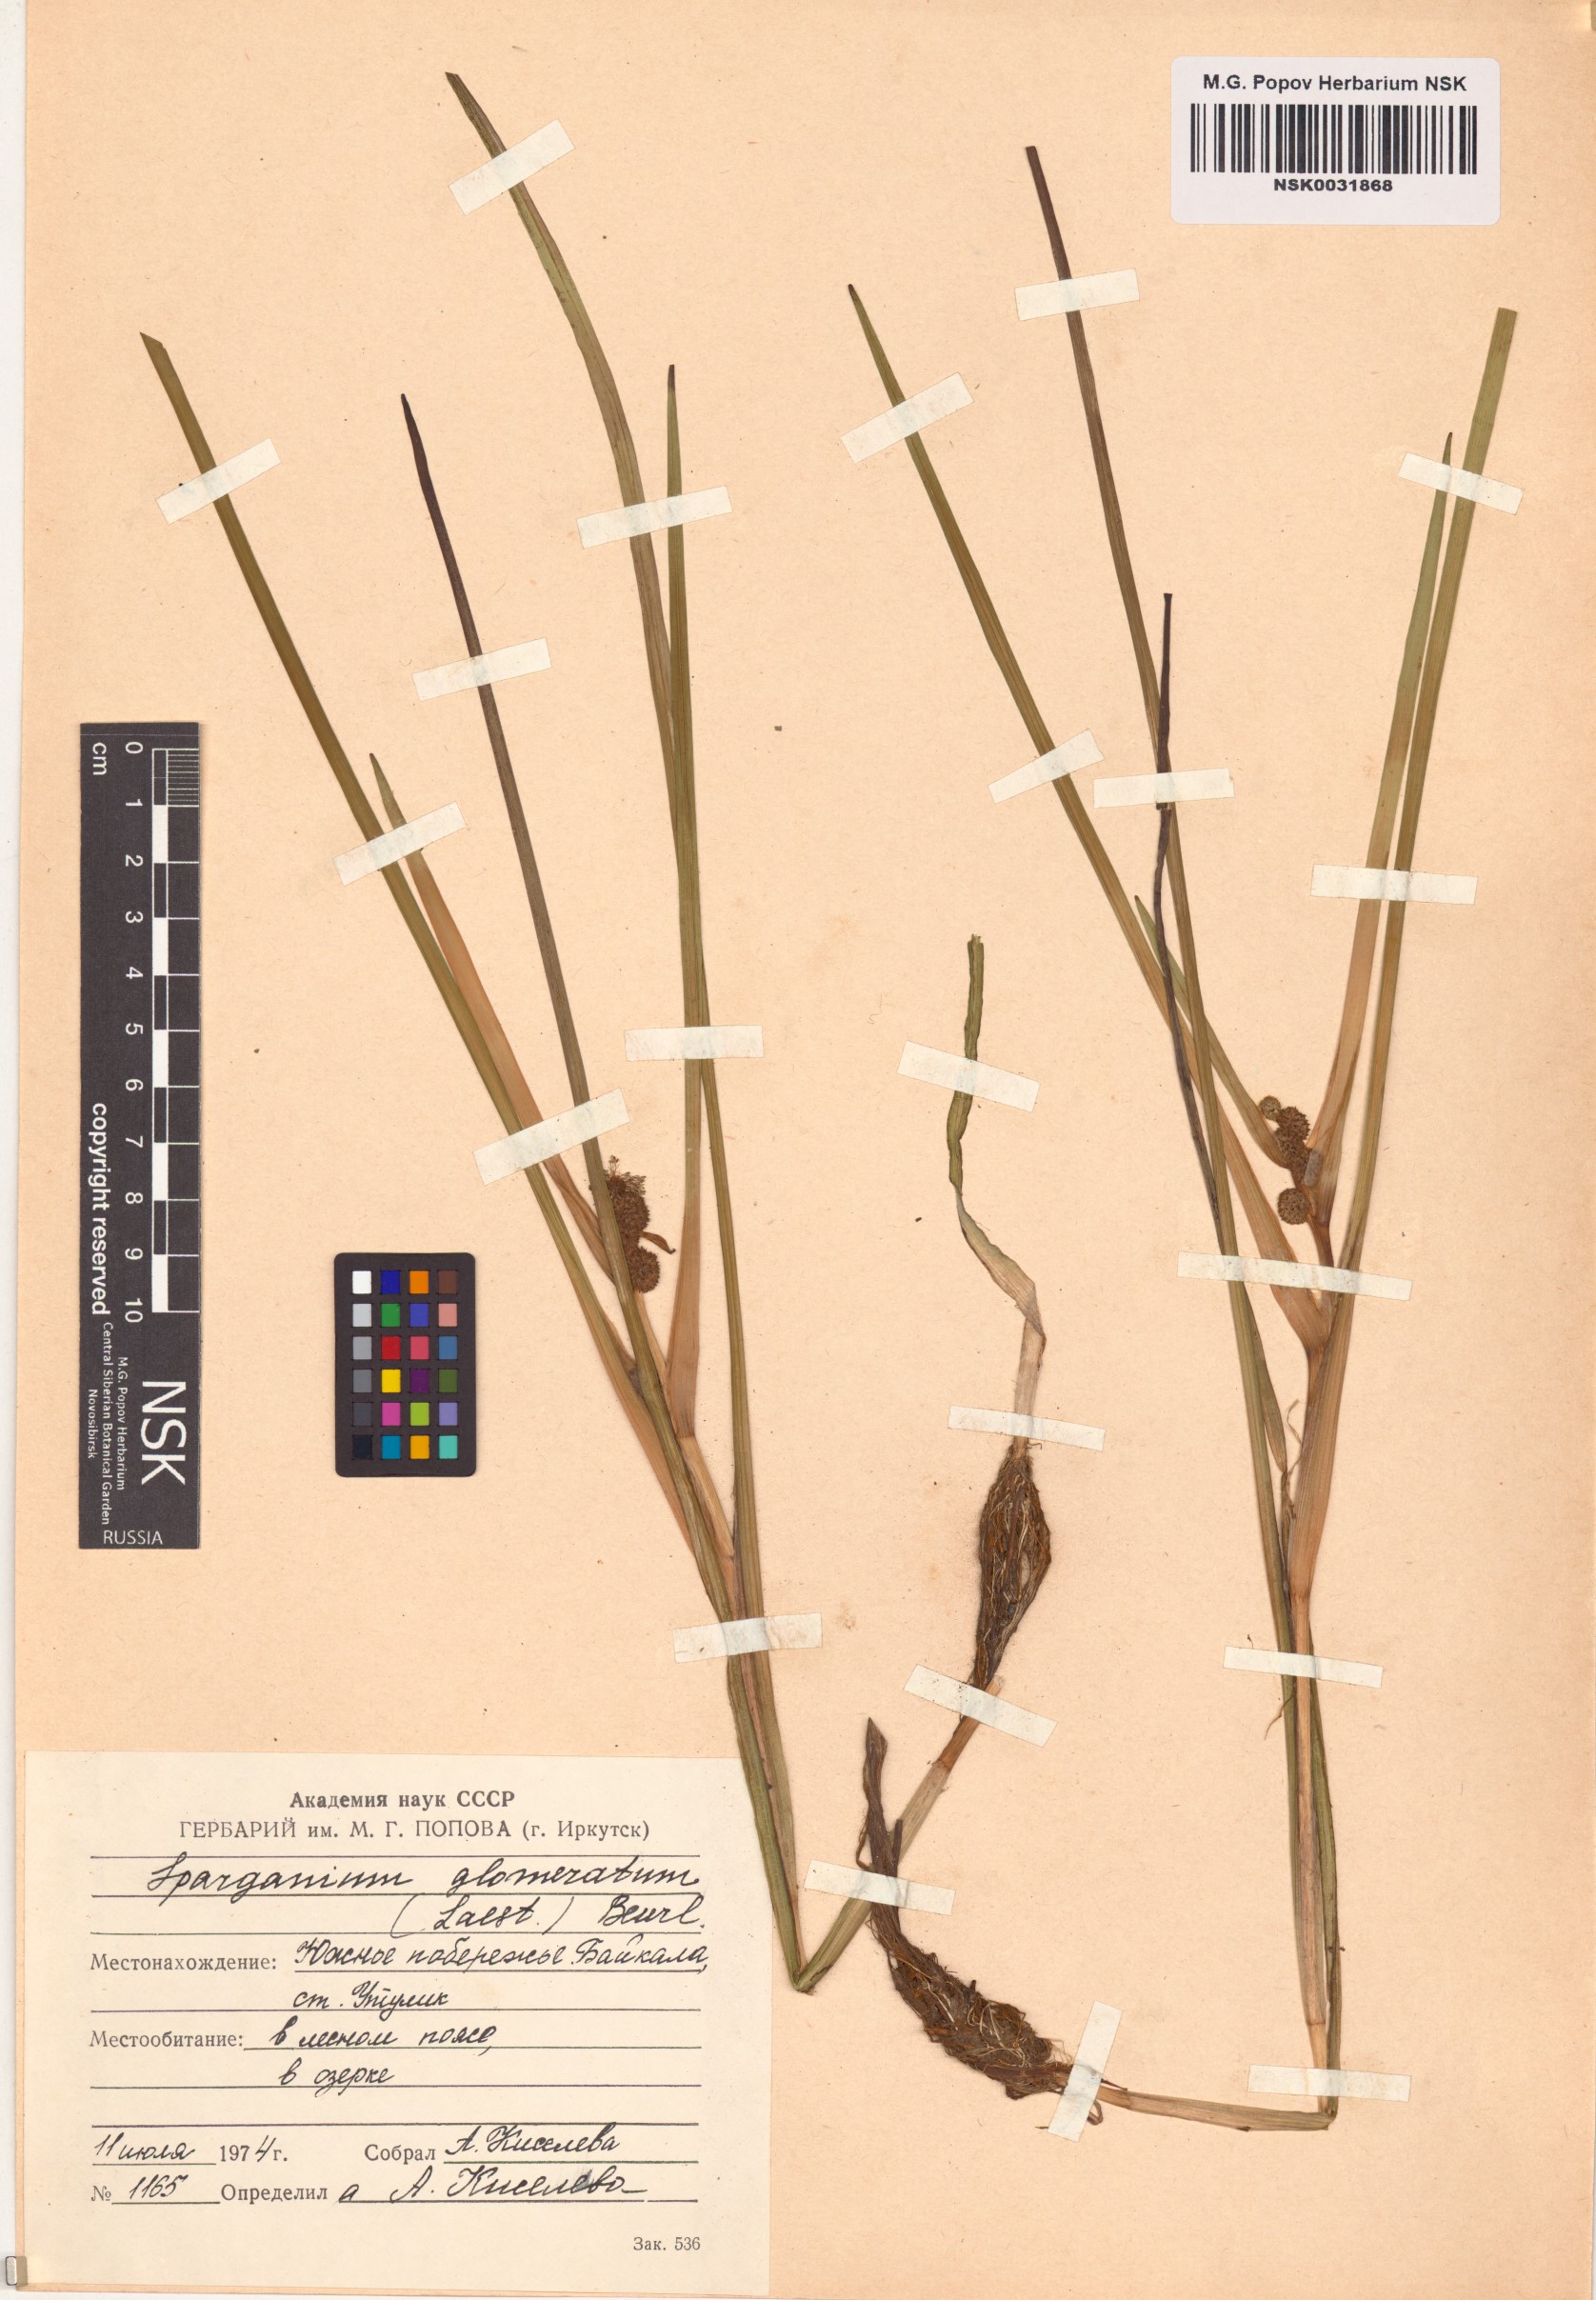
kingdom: Plantae
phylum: Tracheophyta
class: Liliopsida
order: Poales
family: Typhaceae
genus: Sparganium
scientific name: Sparganium glomeratum
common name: Clustered burreed
